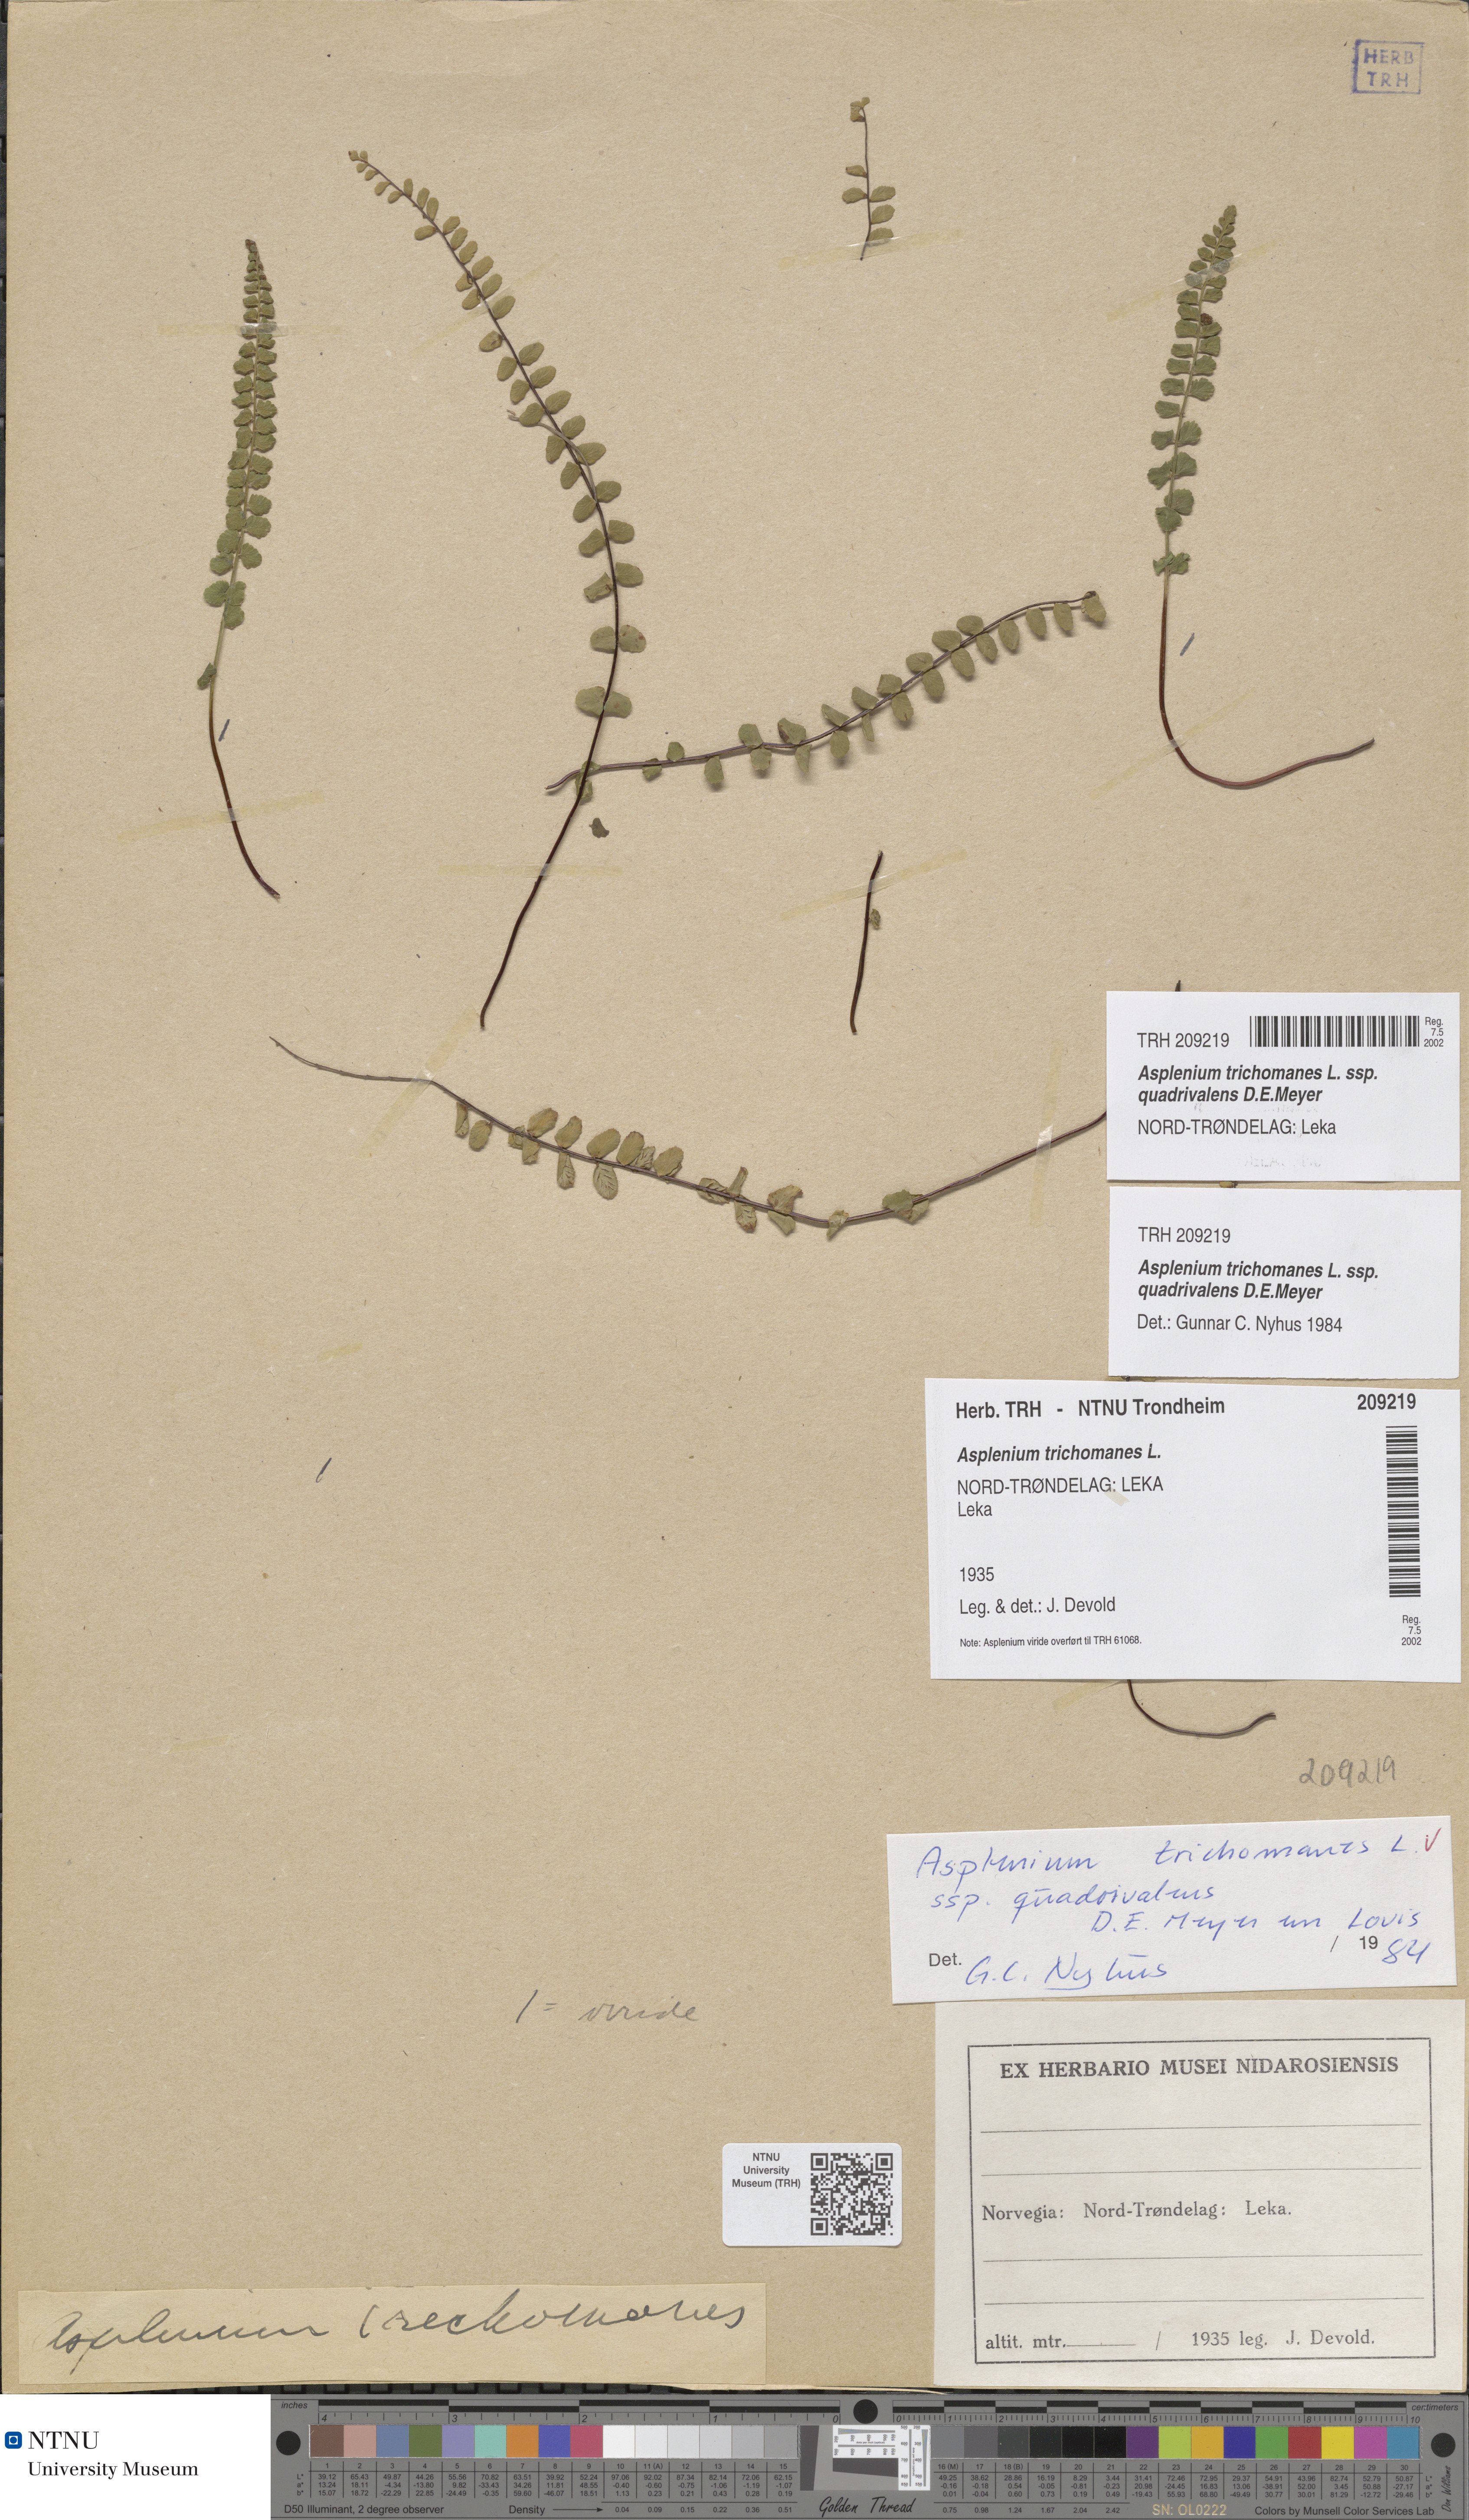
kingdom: Plantae
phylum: Tracheophyta
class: Polypodiopsida
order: Polypodiales
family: Aspleniaceae
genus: Asplenium
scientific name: Asplenium quadrivalens
